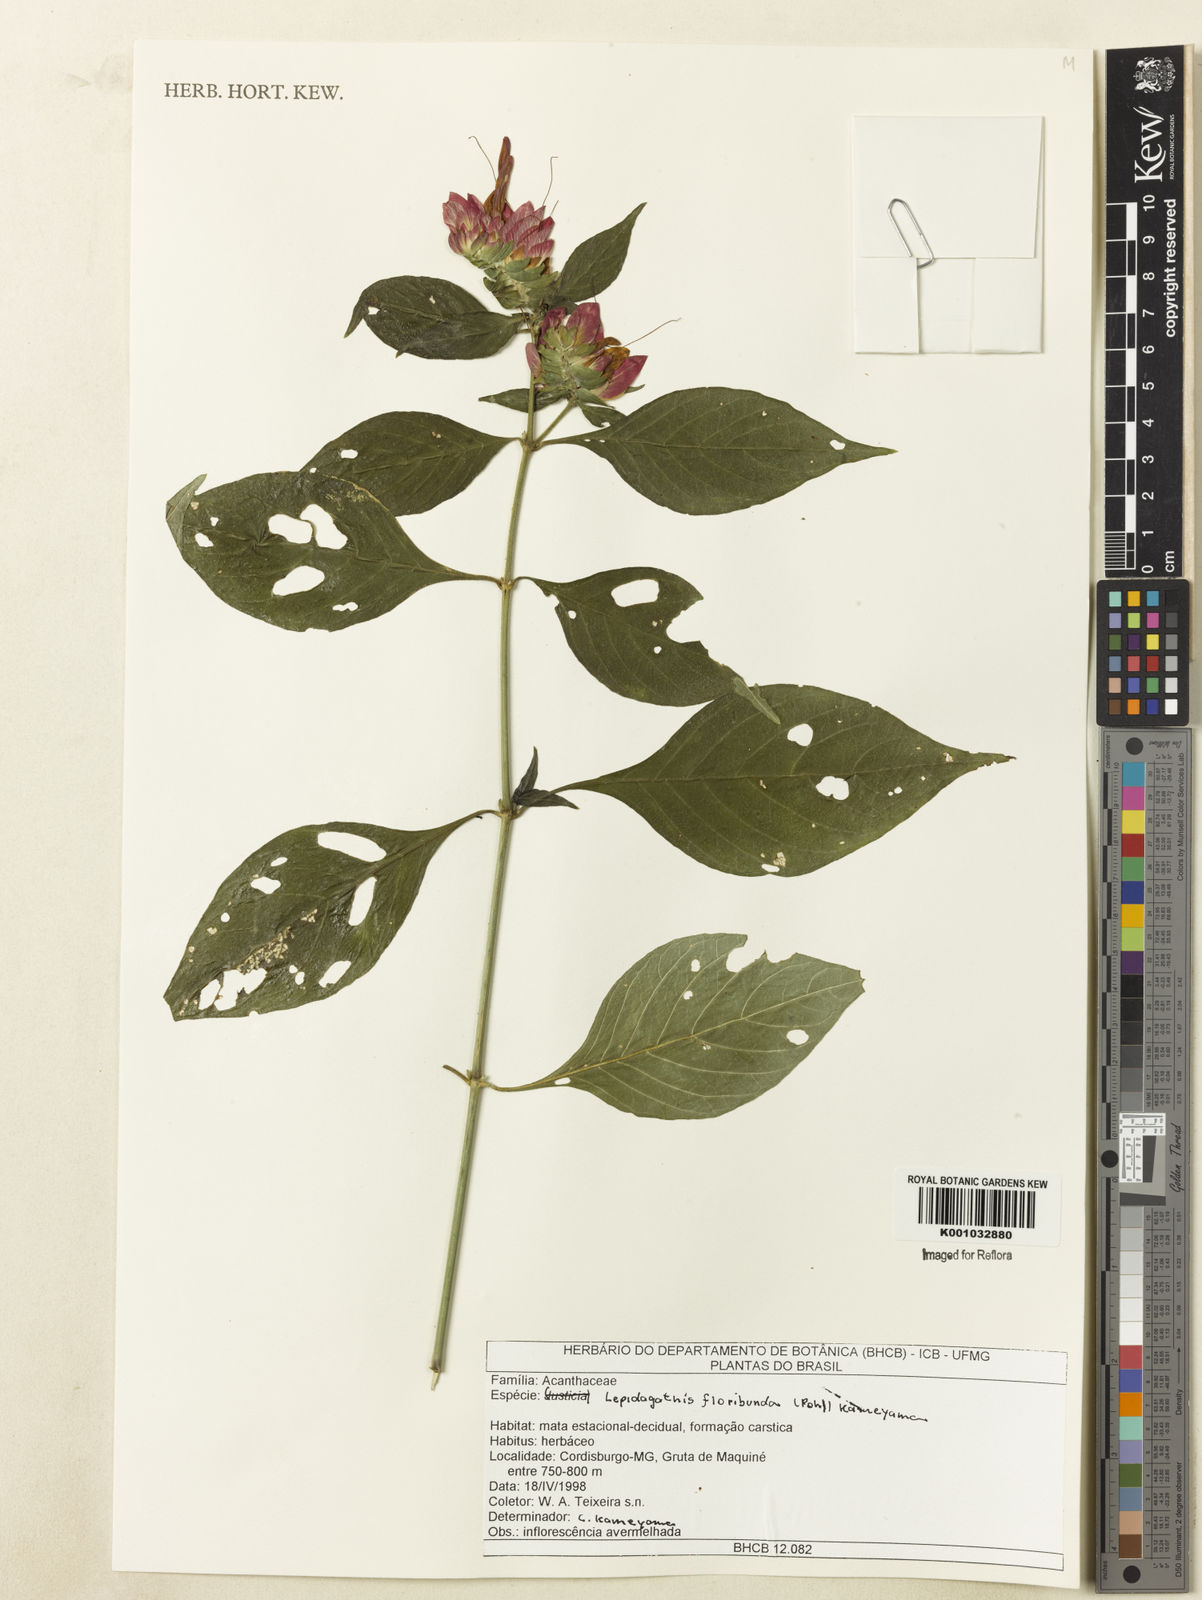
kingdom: Plantae
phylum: Tracheophyta
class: Magnoliopsida
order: Lamiales
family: Acanthaceae
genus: Lepidagathis
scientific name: Lepidagathis floribunda
